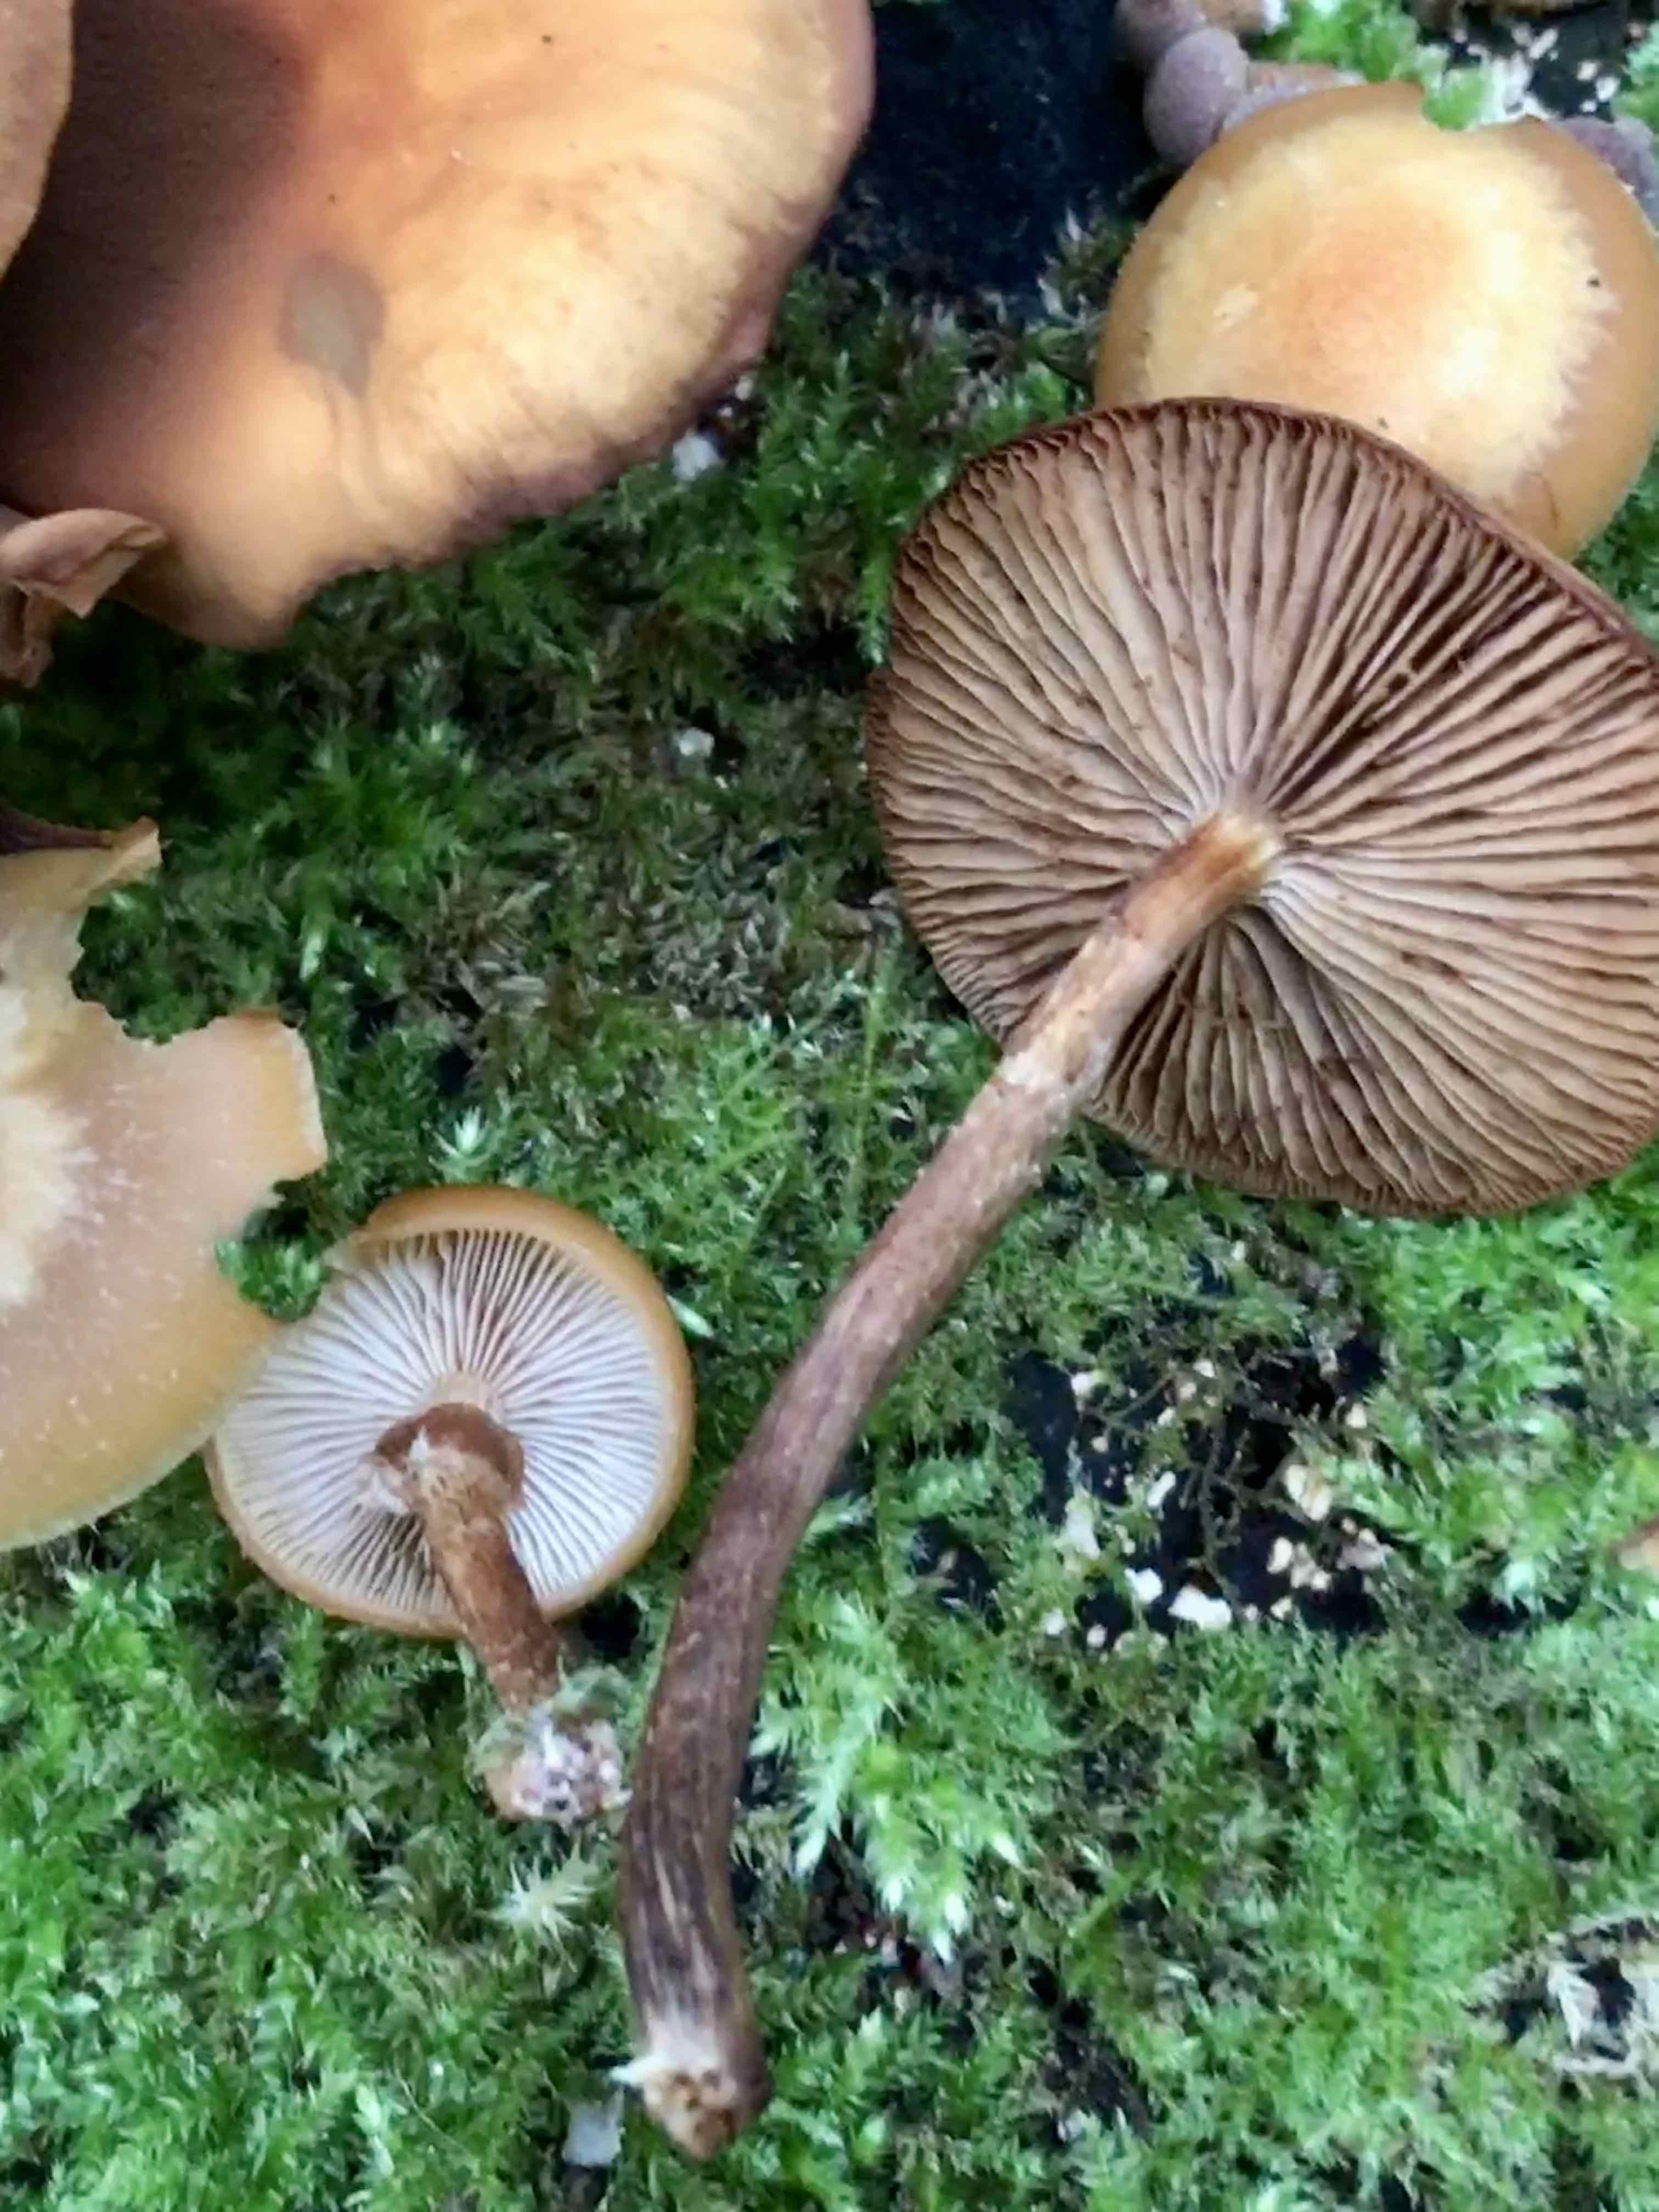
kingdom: Fungi
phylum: Basidiomycota
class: Agaricomycetes
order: Agaricales
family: Strophariaceae
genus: Kuehneromyces
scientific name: Kuehneromyces mutabilis
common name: foranderlig skælhat
